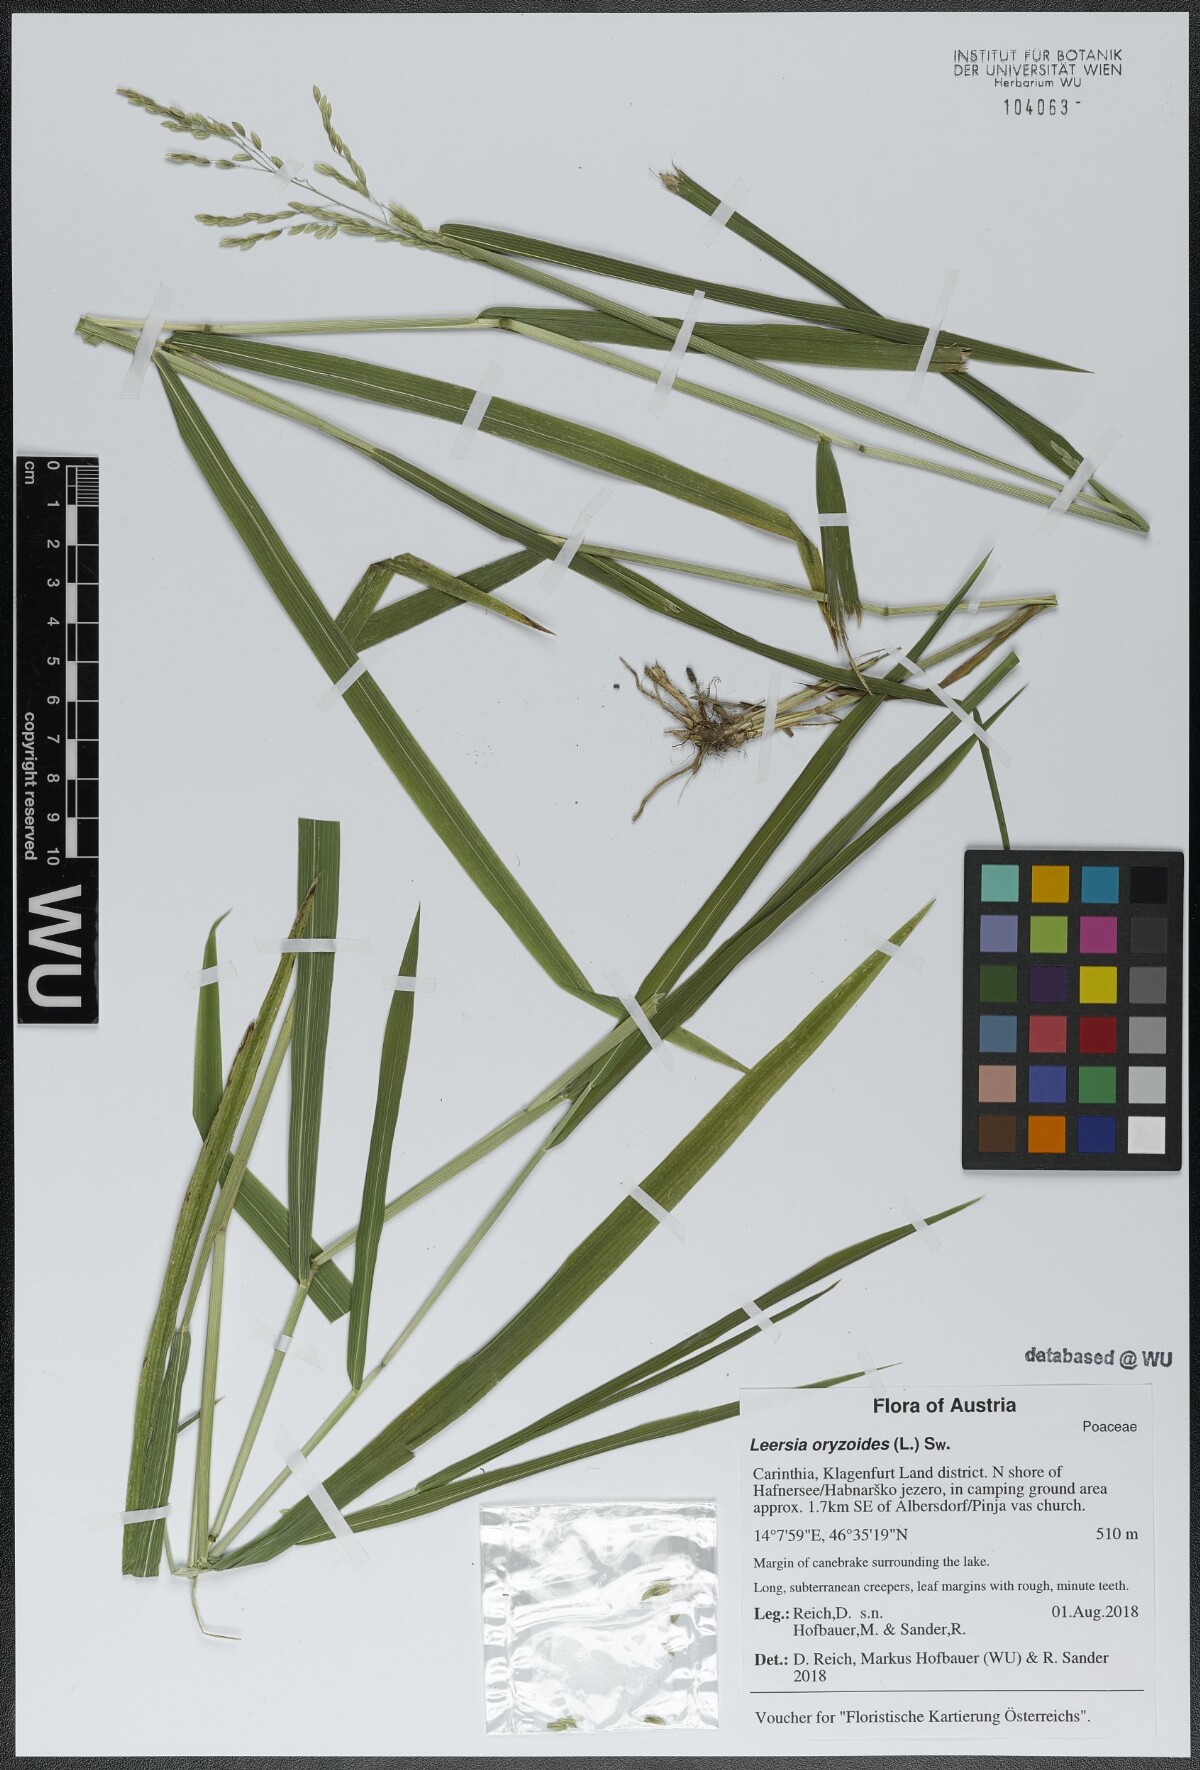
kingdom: Plantae
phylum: Tracheophyta
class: Liliopsida
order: Poales
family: Poaceae
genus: Leersia
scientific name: Leersia oryzoides
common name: Cut-grass
